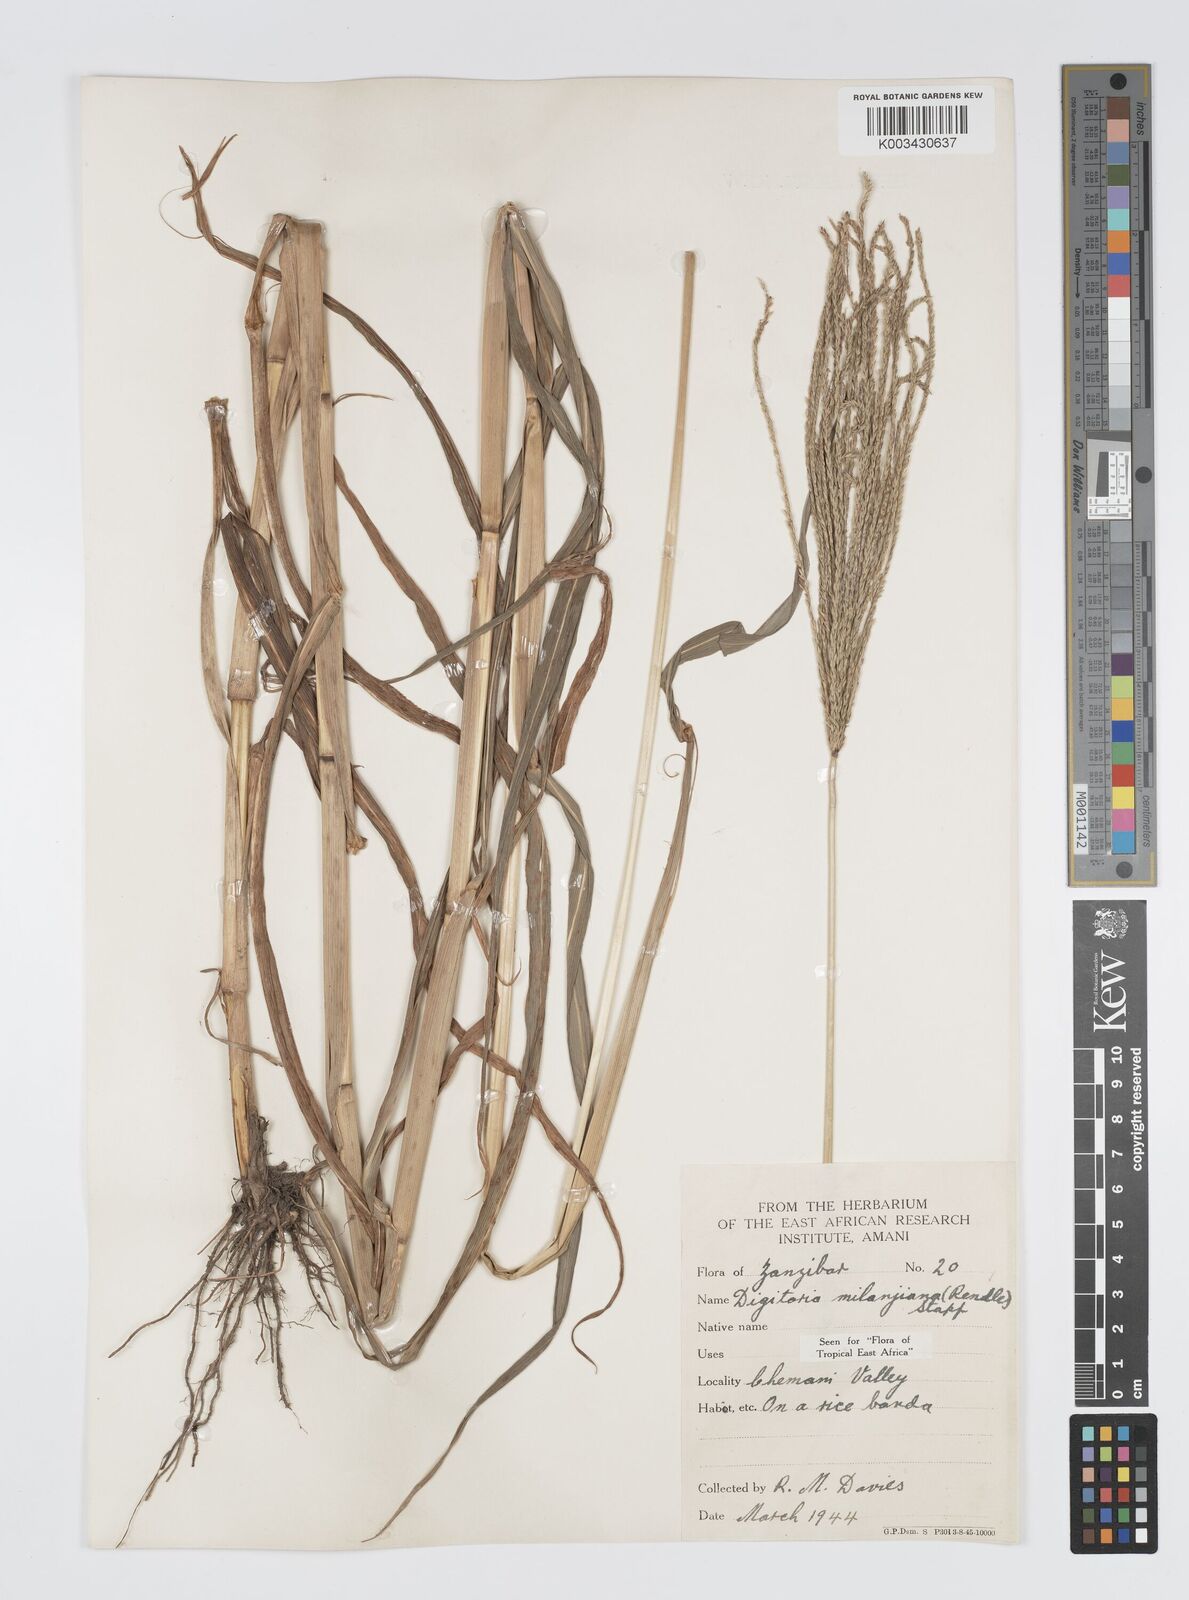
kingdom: Plantae
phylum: Tracheophyta
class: Liliopsida
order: Poales
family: Poaceae
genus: Digitaria
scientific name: Digitaria milanjiana
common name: Madagascar crabgrass
